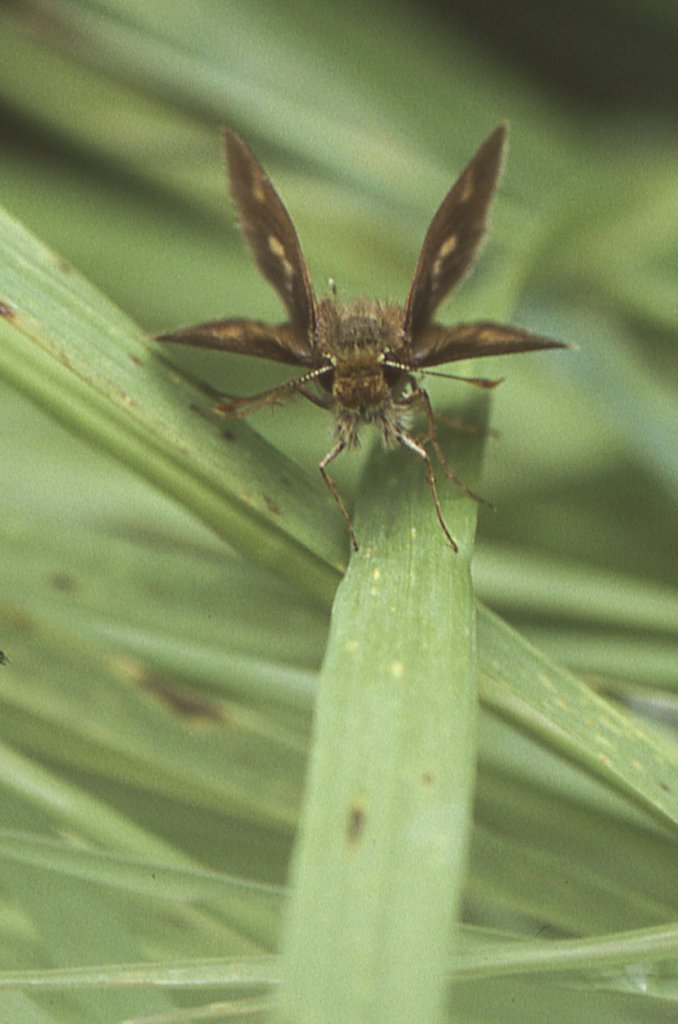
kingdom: Animalia
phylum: Arthropoda
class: Insecta
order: Lepidoptera
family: Hesperiidae
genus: Euphyes
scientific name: Euphyes
